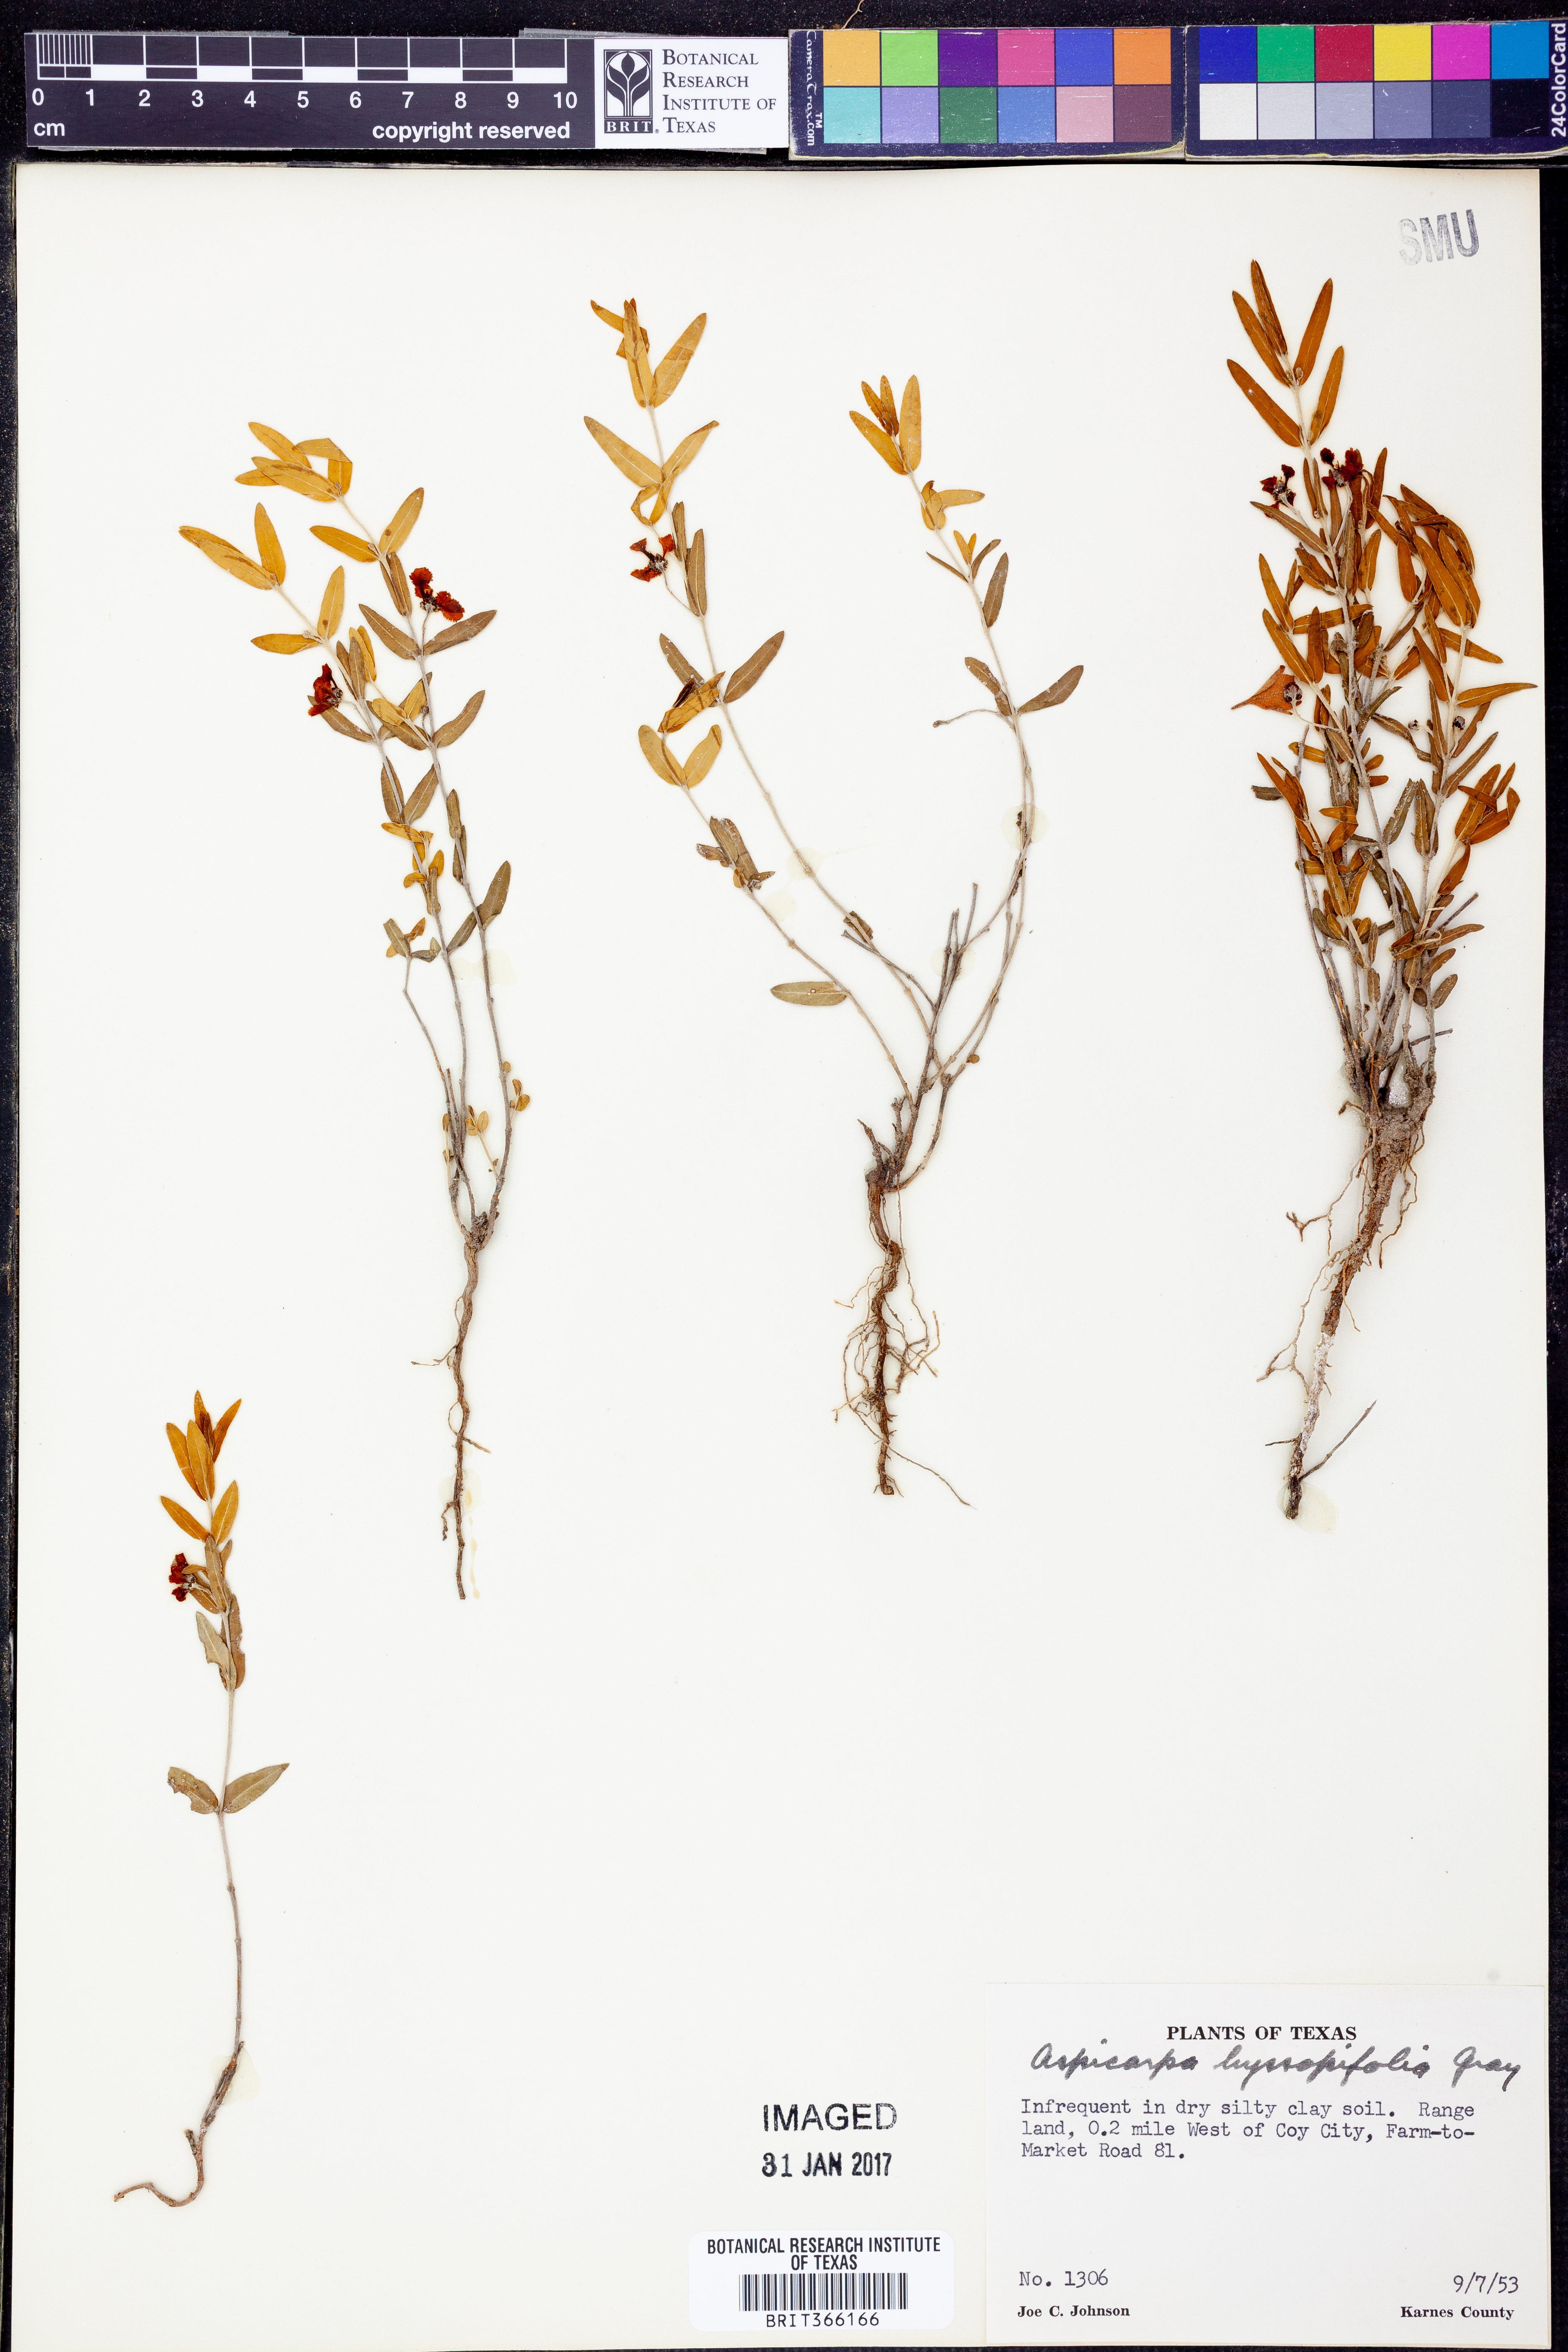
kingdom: Plantae
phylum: Tracheophyta
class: Magnoliopsida
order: Malpighiales
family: Malpighiaceae
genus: Aspicarpa
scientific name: Aspicarpa hyssopifolia
